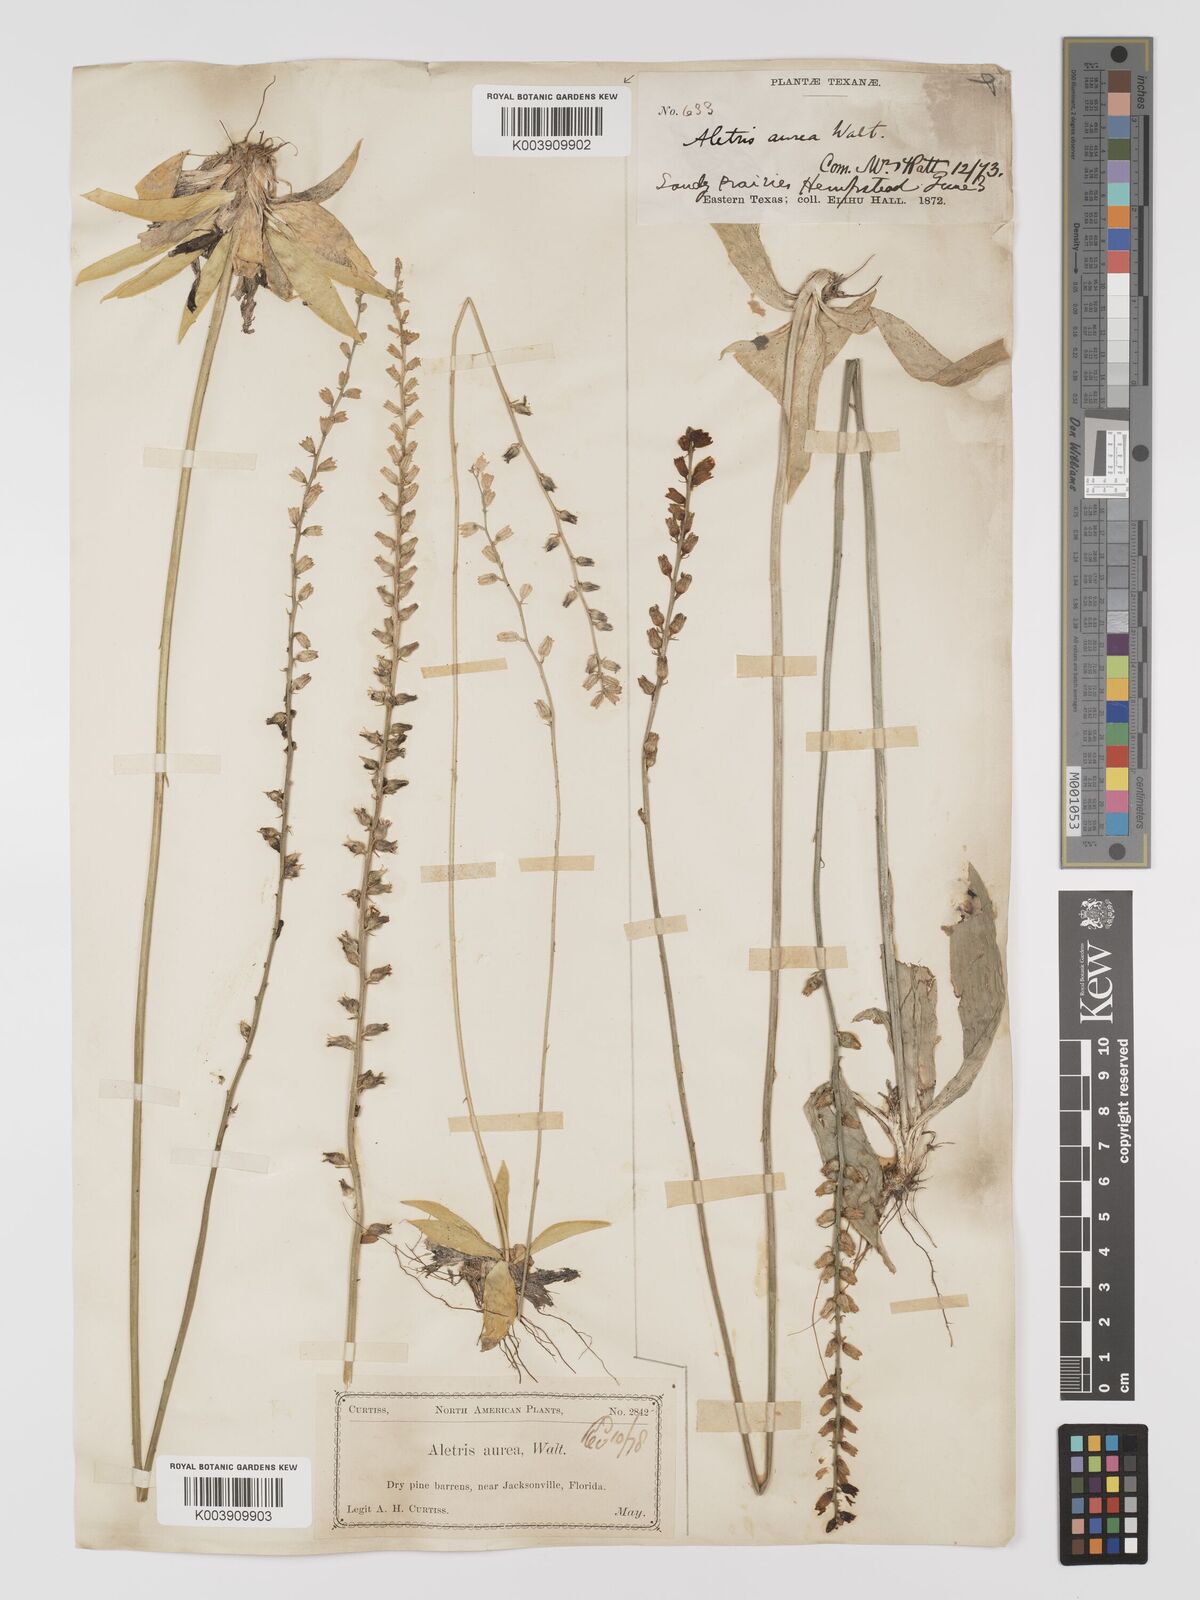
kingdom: Plantae
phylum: Tracheophyta
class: Liliopsida
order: Dioscoreales
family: Nartheciaceae
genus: Aletris
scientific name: Aletris aurea
